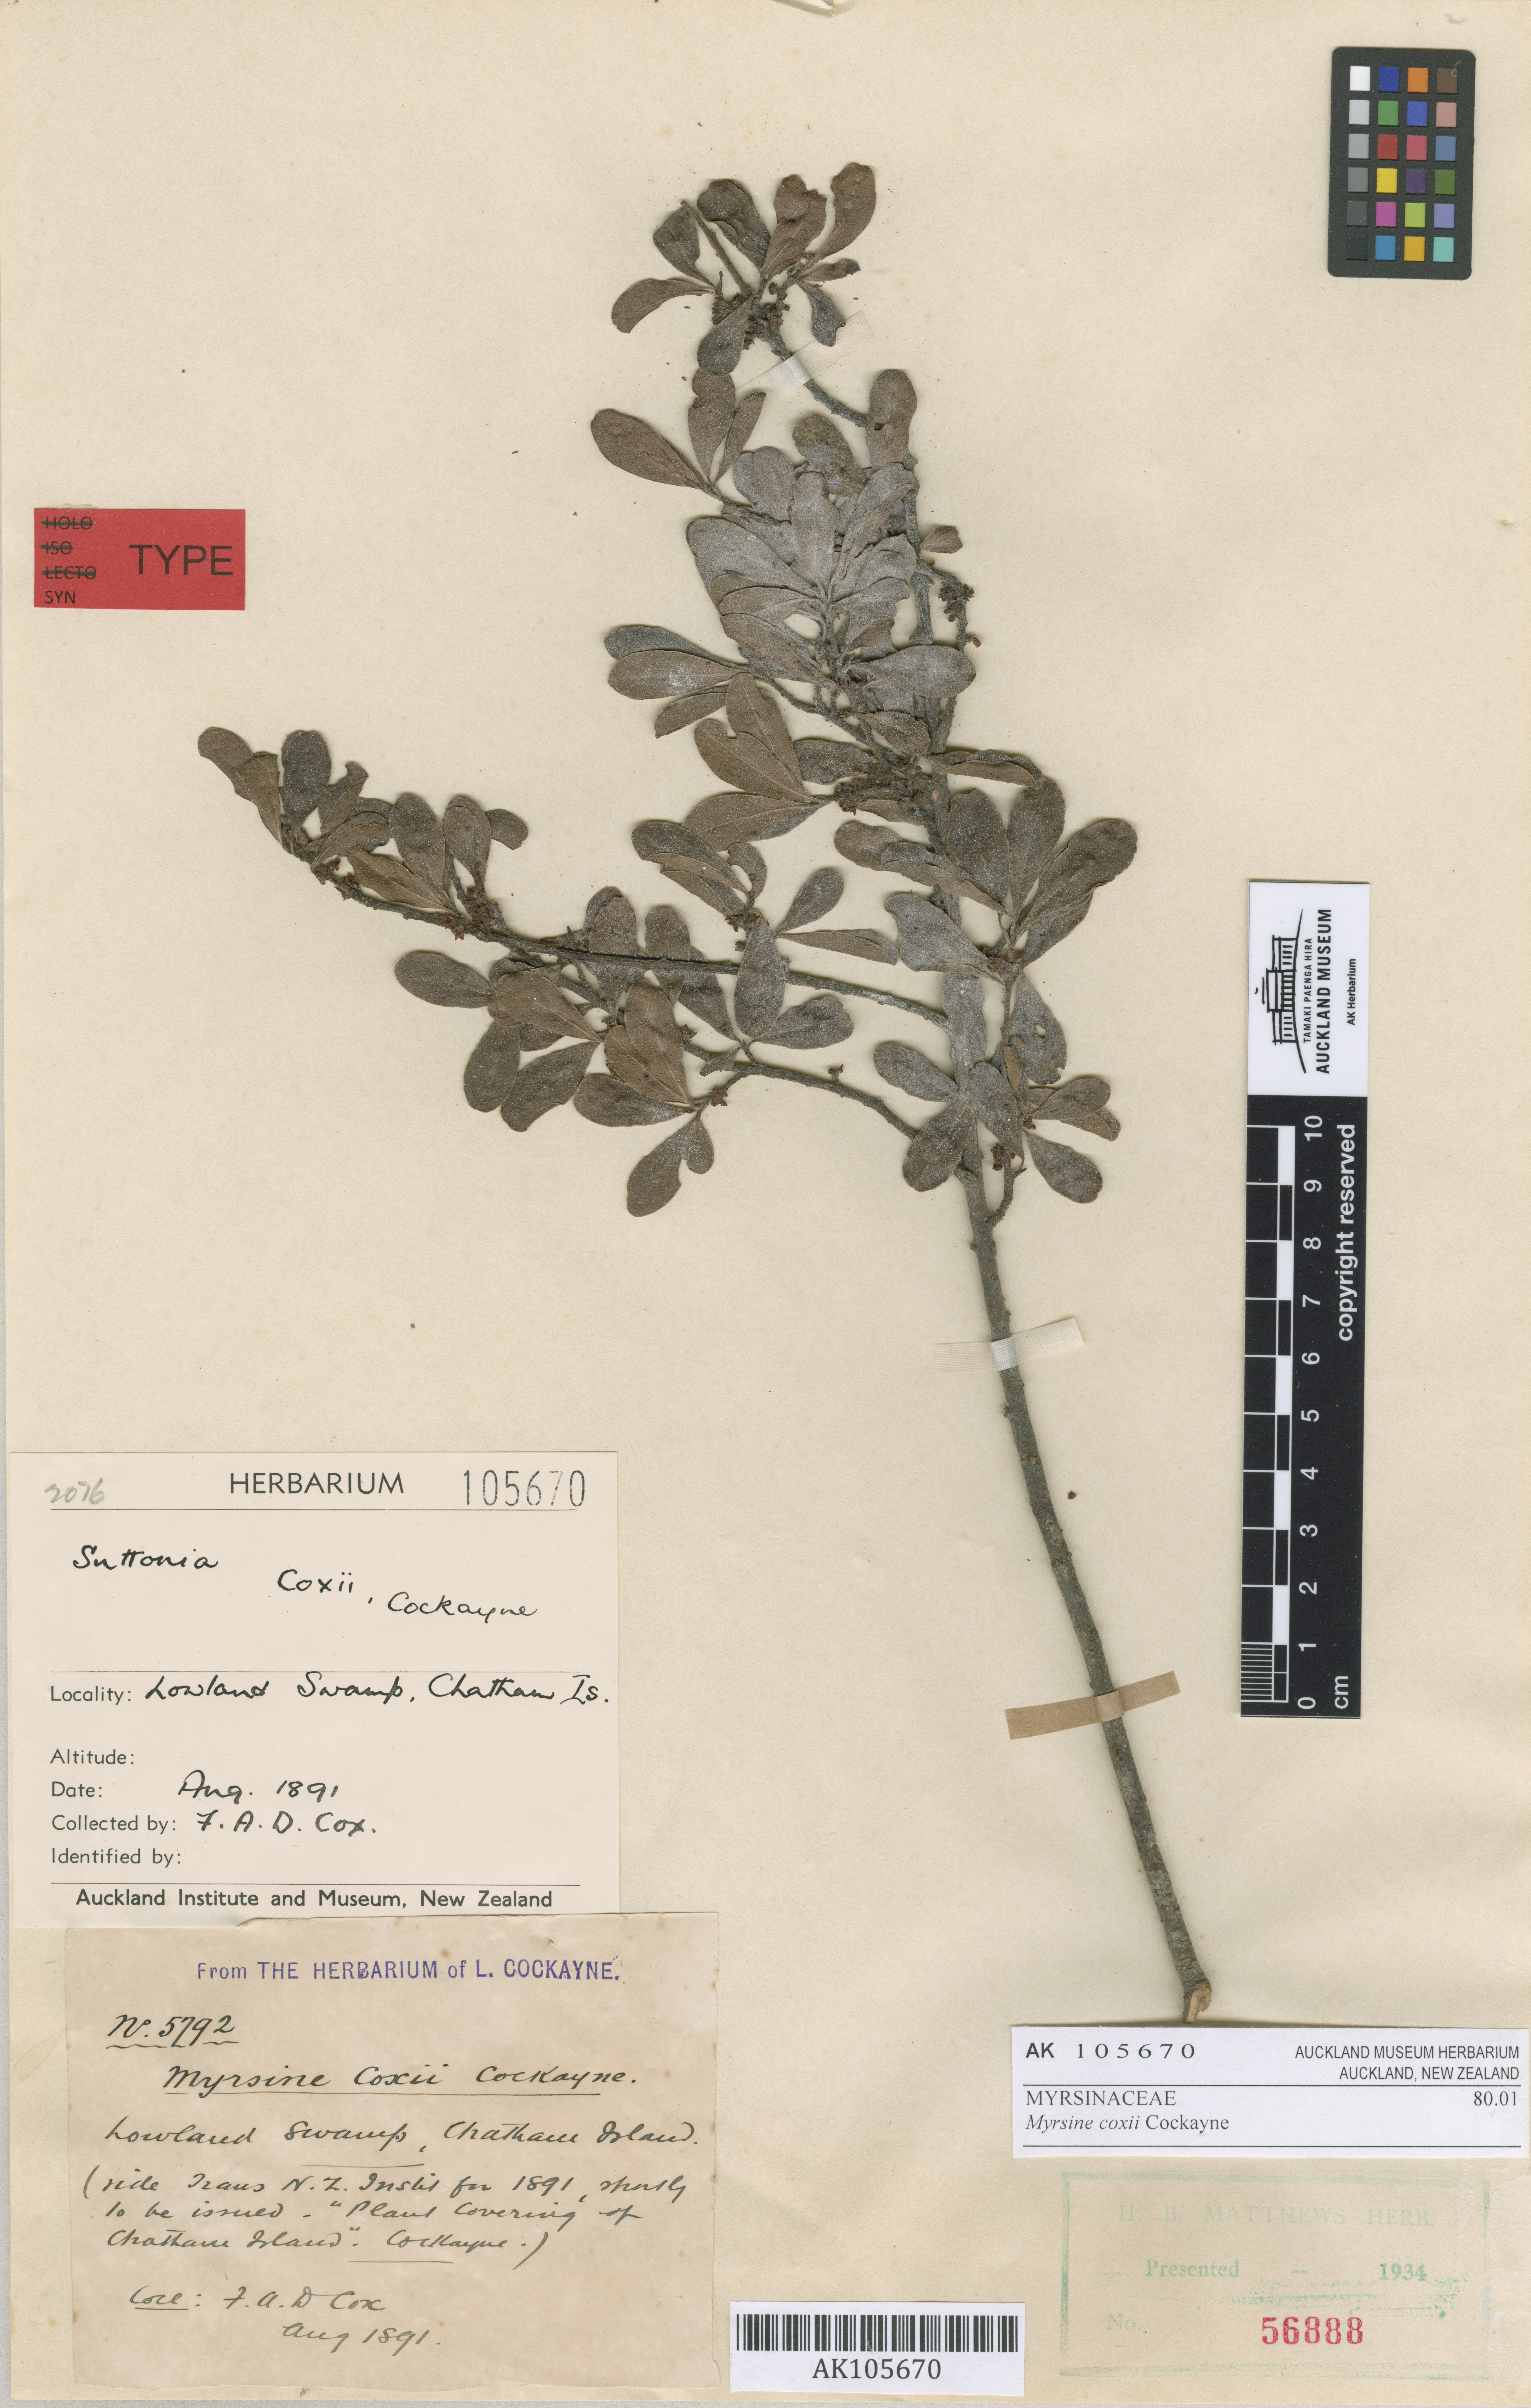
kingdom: Plantae
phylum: Tracheophyta
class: Magnoliopsida
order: Ericales
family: Primulaceae
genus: Myrsine
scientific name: Myrsine coxii
